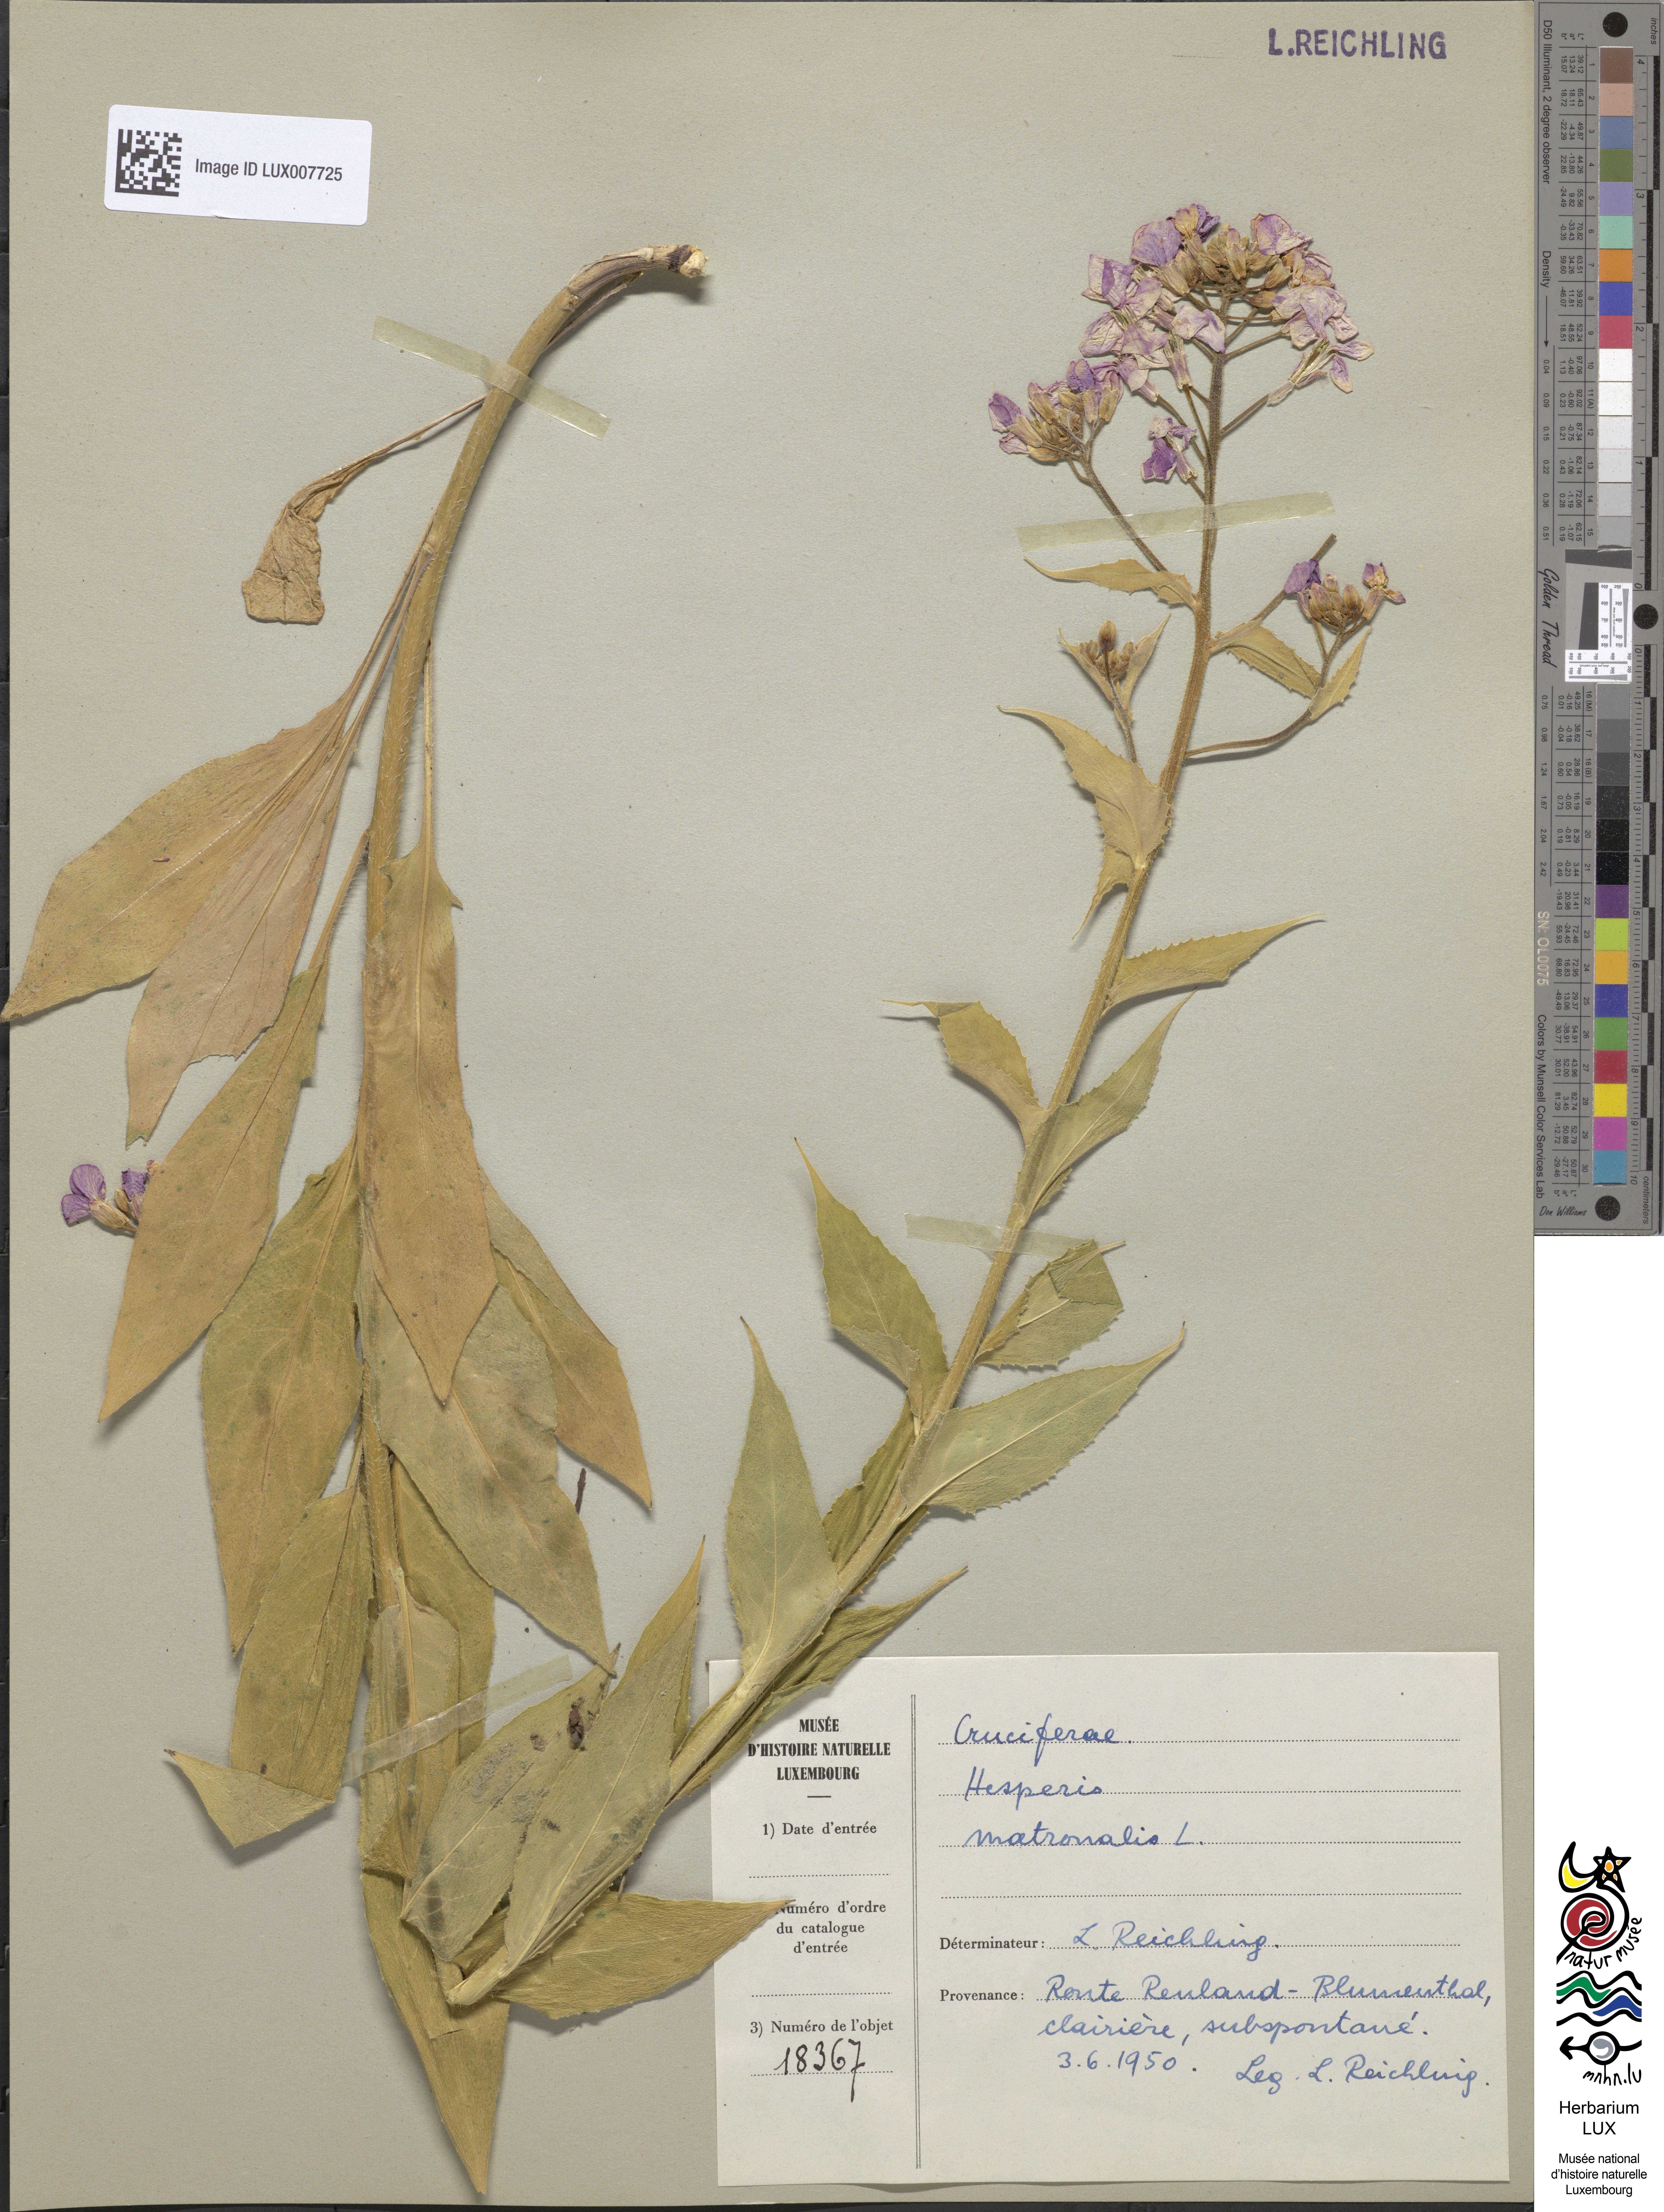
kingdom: Plantae
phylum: Tracheophyta
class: Magnoliopsida
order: Brassicales
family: Brassicaceae
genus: Hesperis
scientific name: Hesperis matronalis
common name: Dame's-violet
